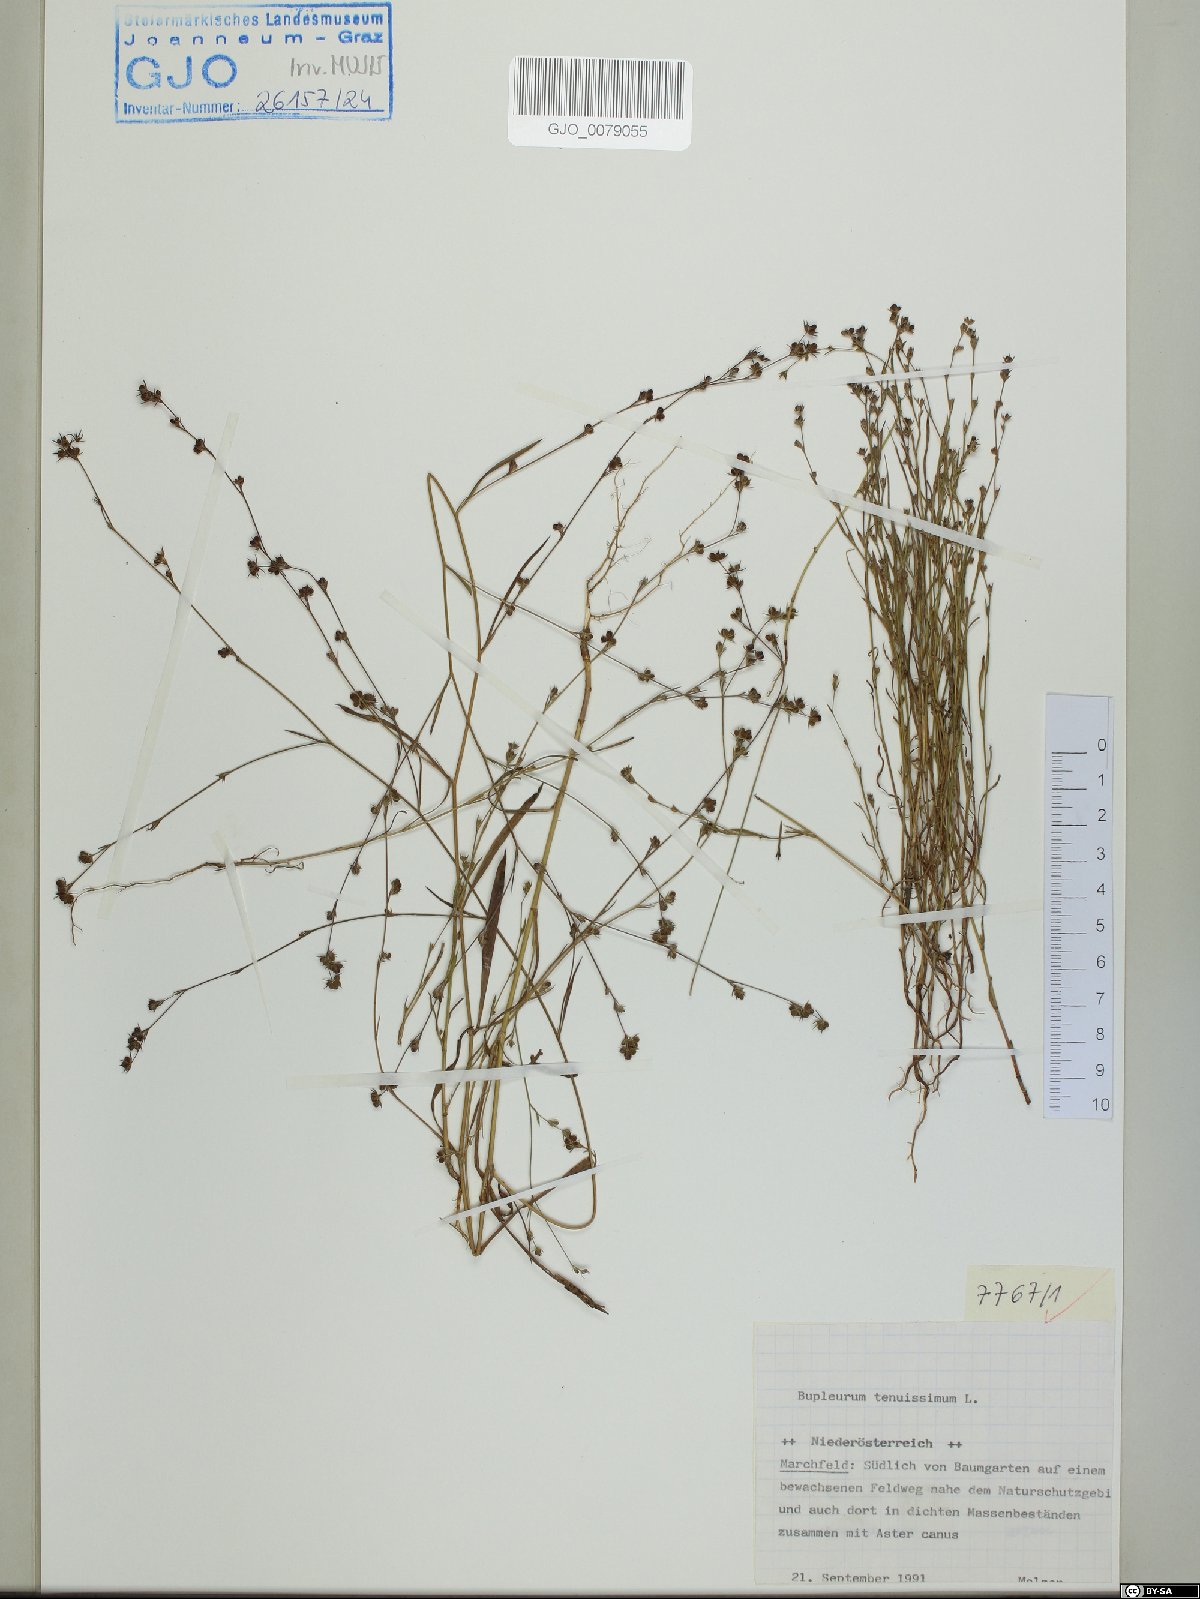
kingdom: Plantae
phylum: Tracheophyta
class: Magnoliopsida
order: Apiales
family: Apiaceae
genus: Bupleurum
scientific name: Bupleurum tenuissimum
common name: Slender hare's-ear
